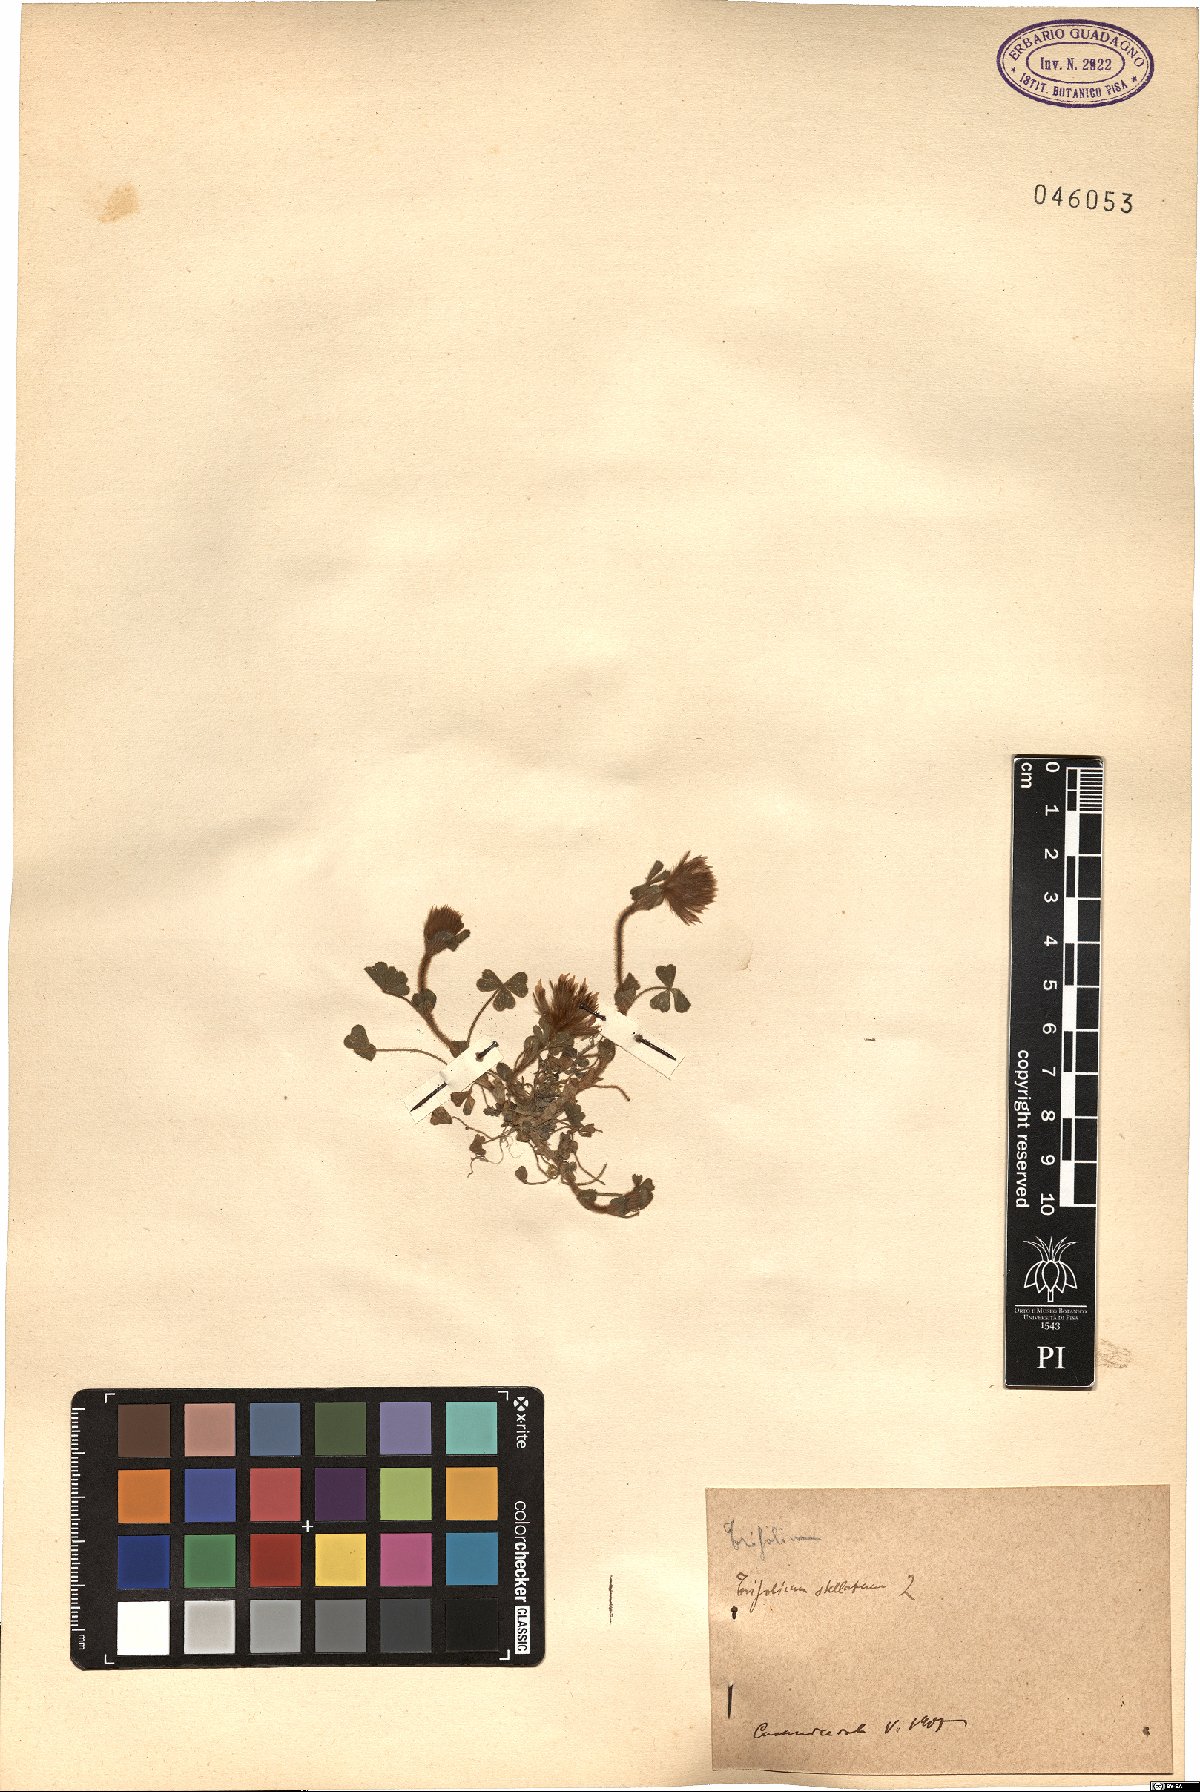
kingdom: Plantae
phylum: Tracheophyta
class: Magnoliopsida
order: Fabales
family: Fabaceae
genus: Trifolium
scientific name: Trifolium stellatum
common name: Starry clover
